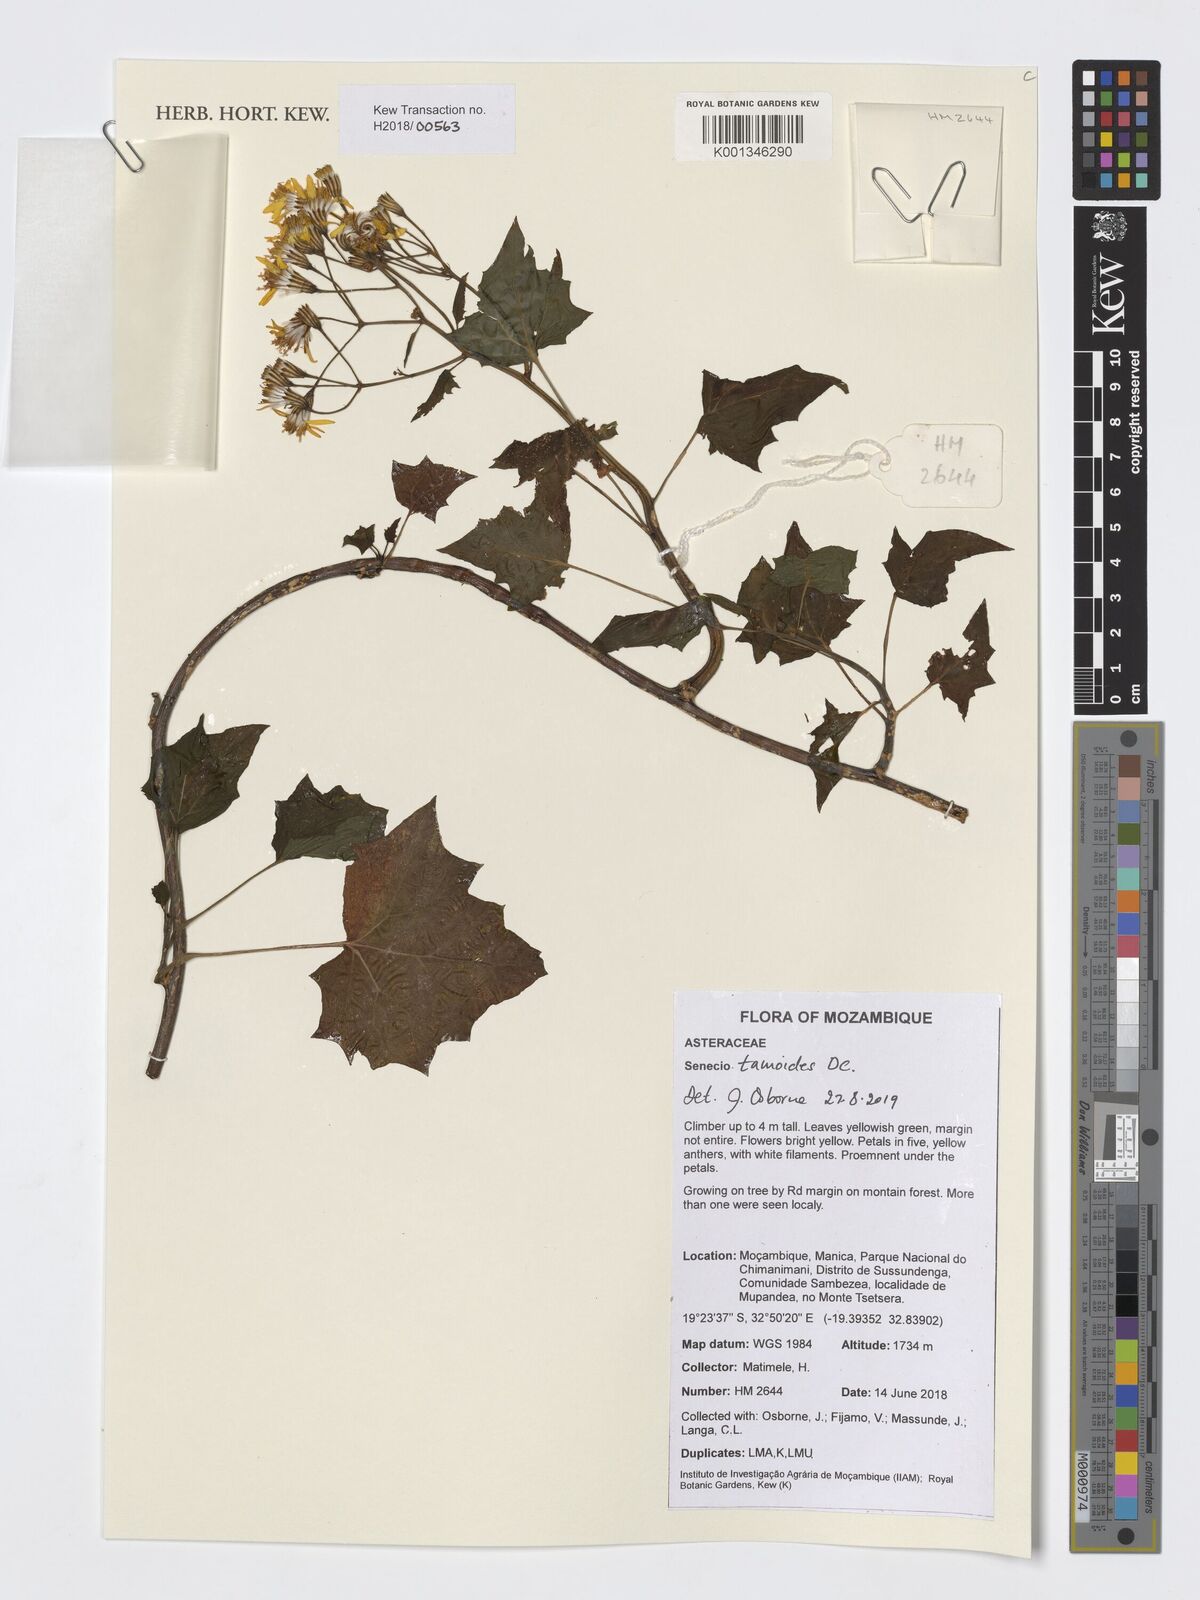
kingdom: Plantae
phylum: Tracheophyta
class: Magnoliopsida
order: Asterales
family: Asteraceae
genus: Senecio
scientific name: Senecio tamoides
